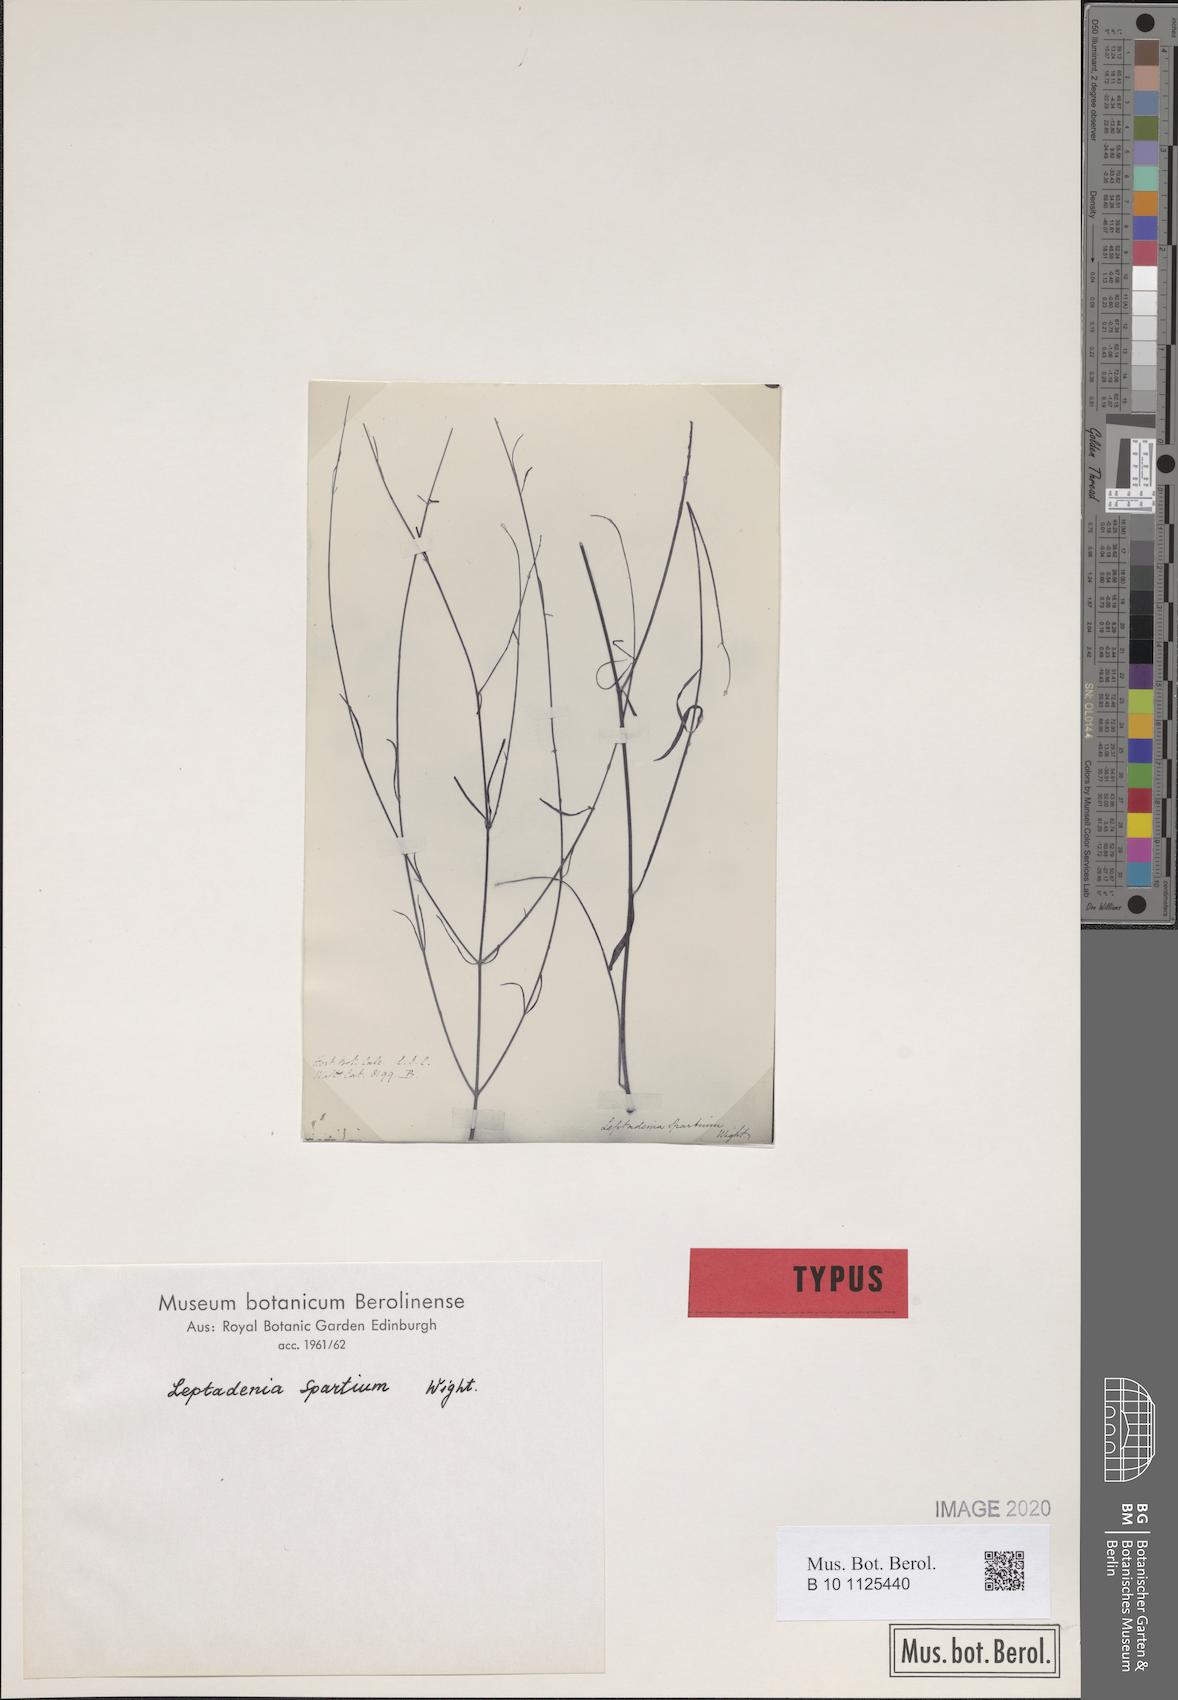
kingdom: Plantae
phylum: Tracheophyta
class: Magnoliopsida
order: Gentianales
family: Apocynaceae
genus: Leptadenia
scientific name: Leptadenia pyrotechnica
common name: Broom brush
